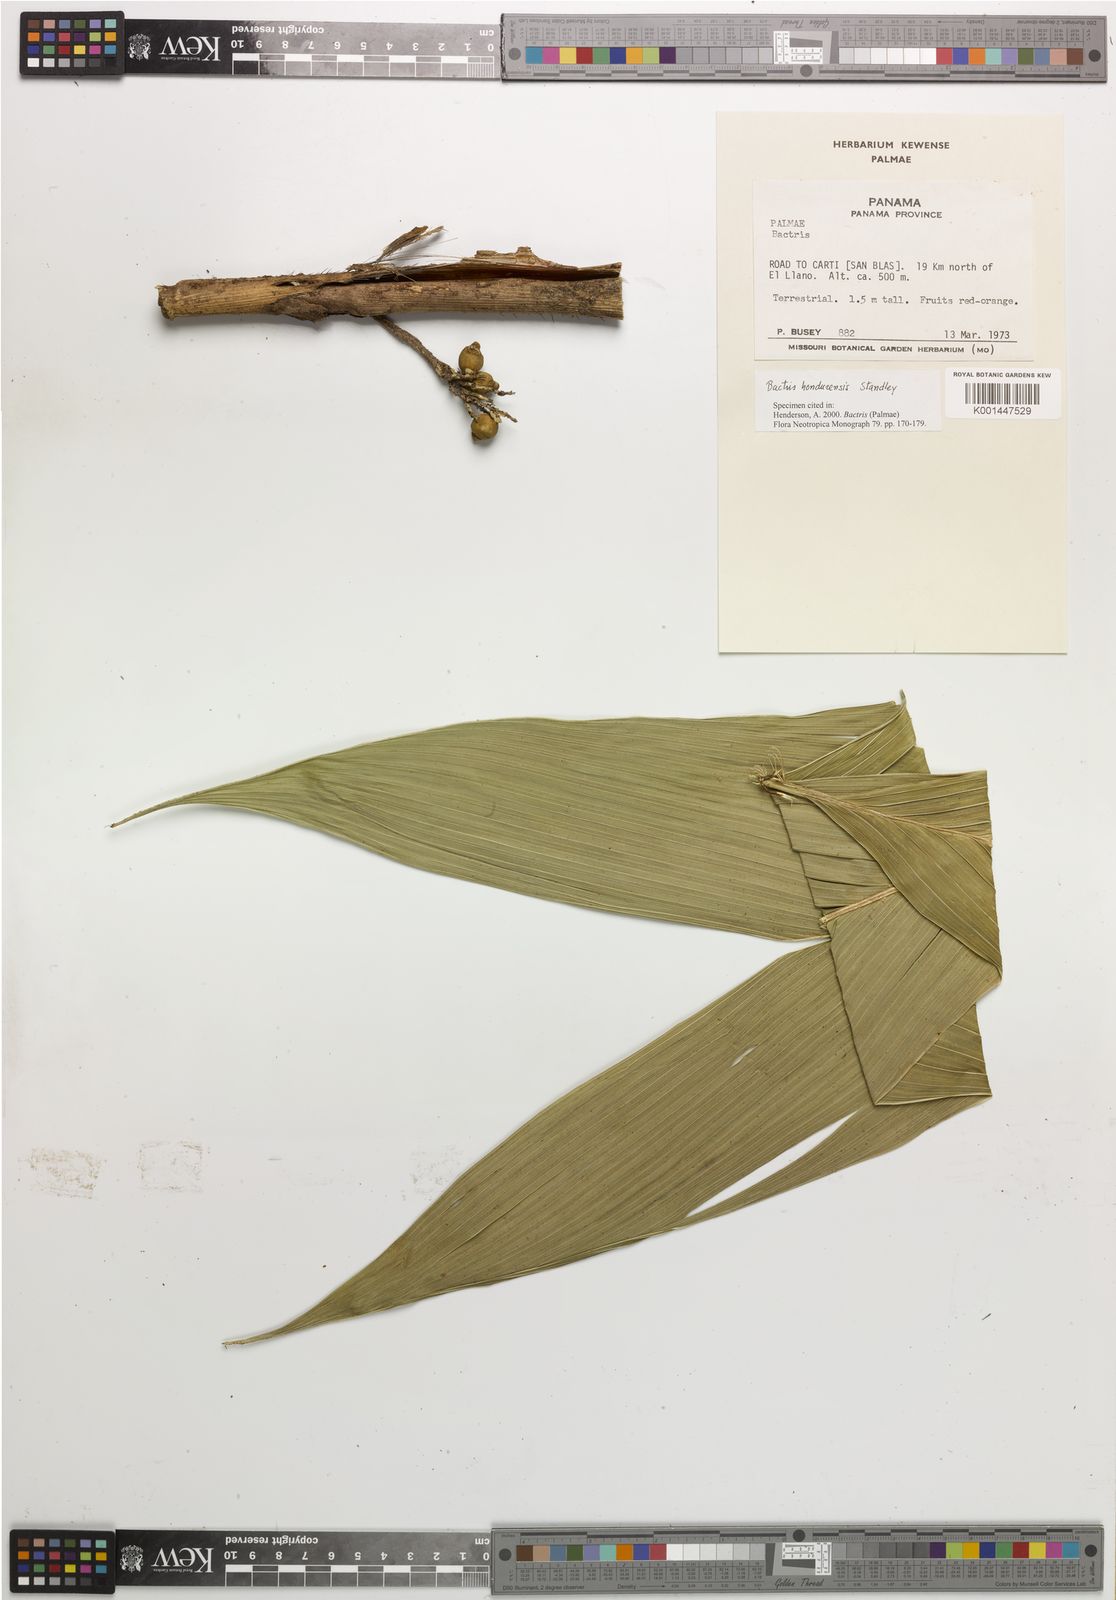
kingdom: Plantae
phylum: Tracheophyta
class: Liliopsida
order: Arecales
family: Arecaceae
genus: Bactris
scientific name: Bactris obovata
